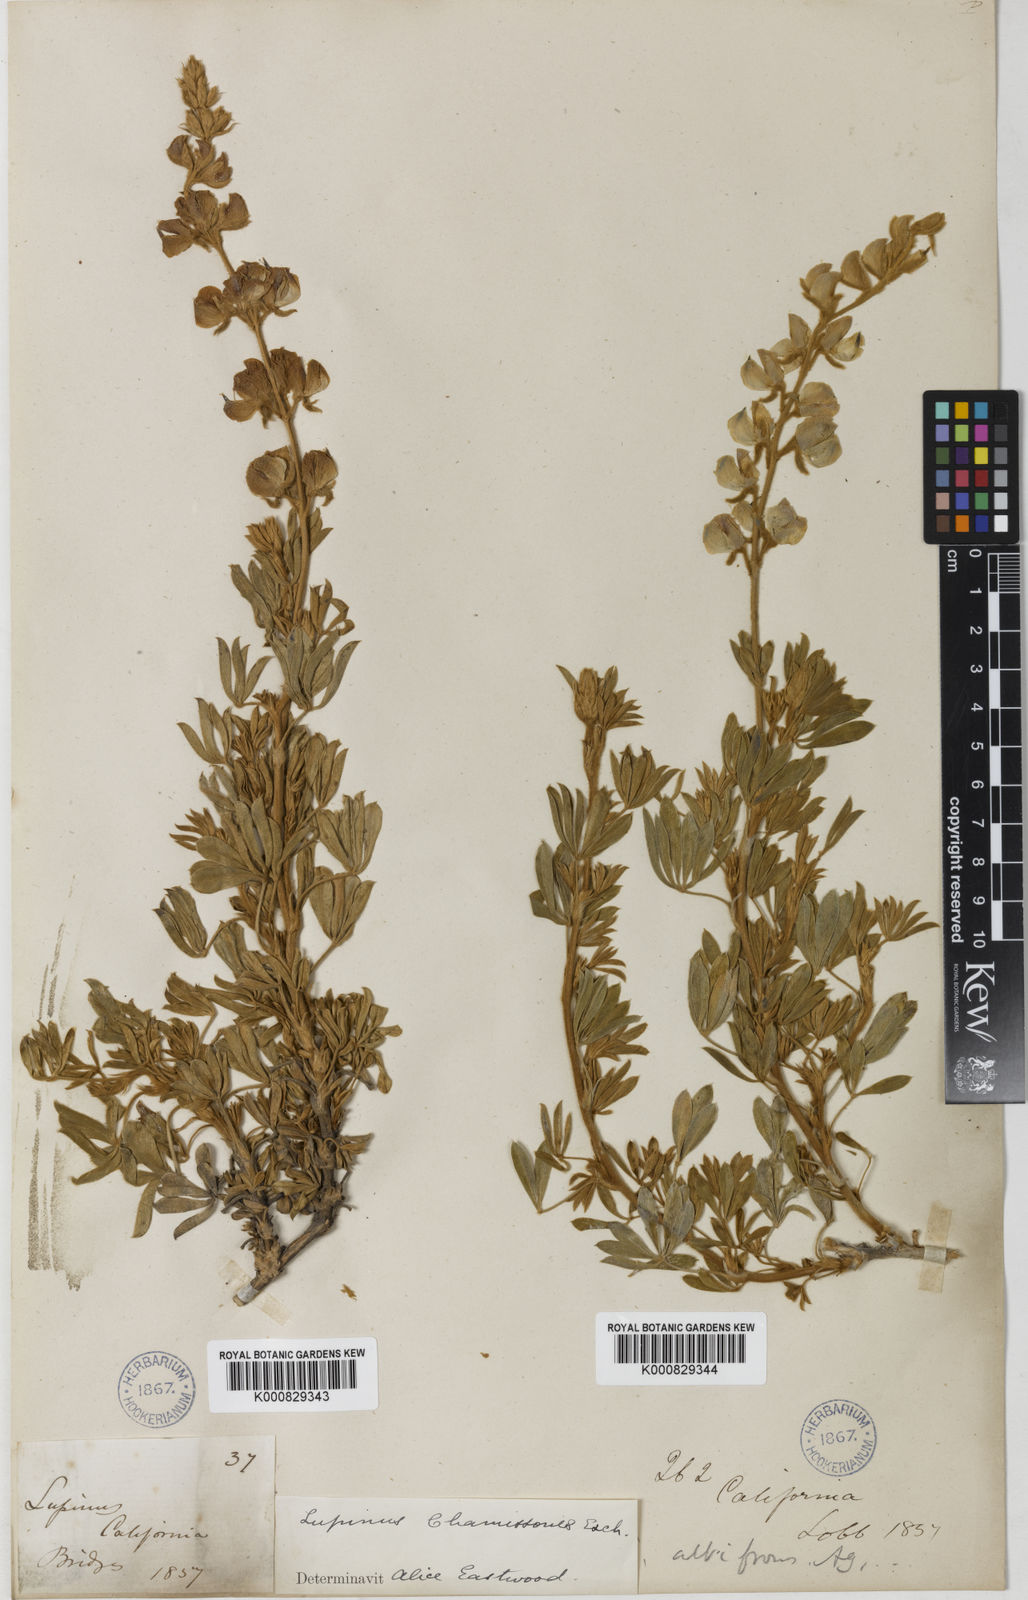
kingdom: Plantae
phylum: Tracheophyta
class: Magnoliopsida
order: Fabales
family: Fabaceae
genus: Lupinus
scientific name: Lupinus chamissonis
